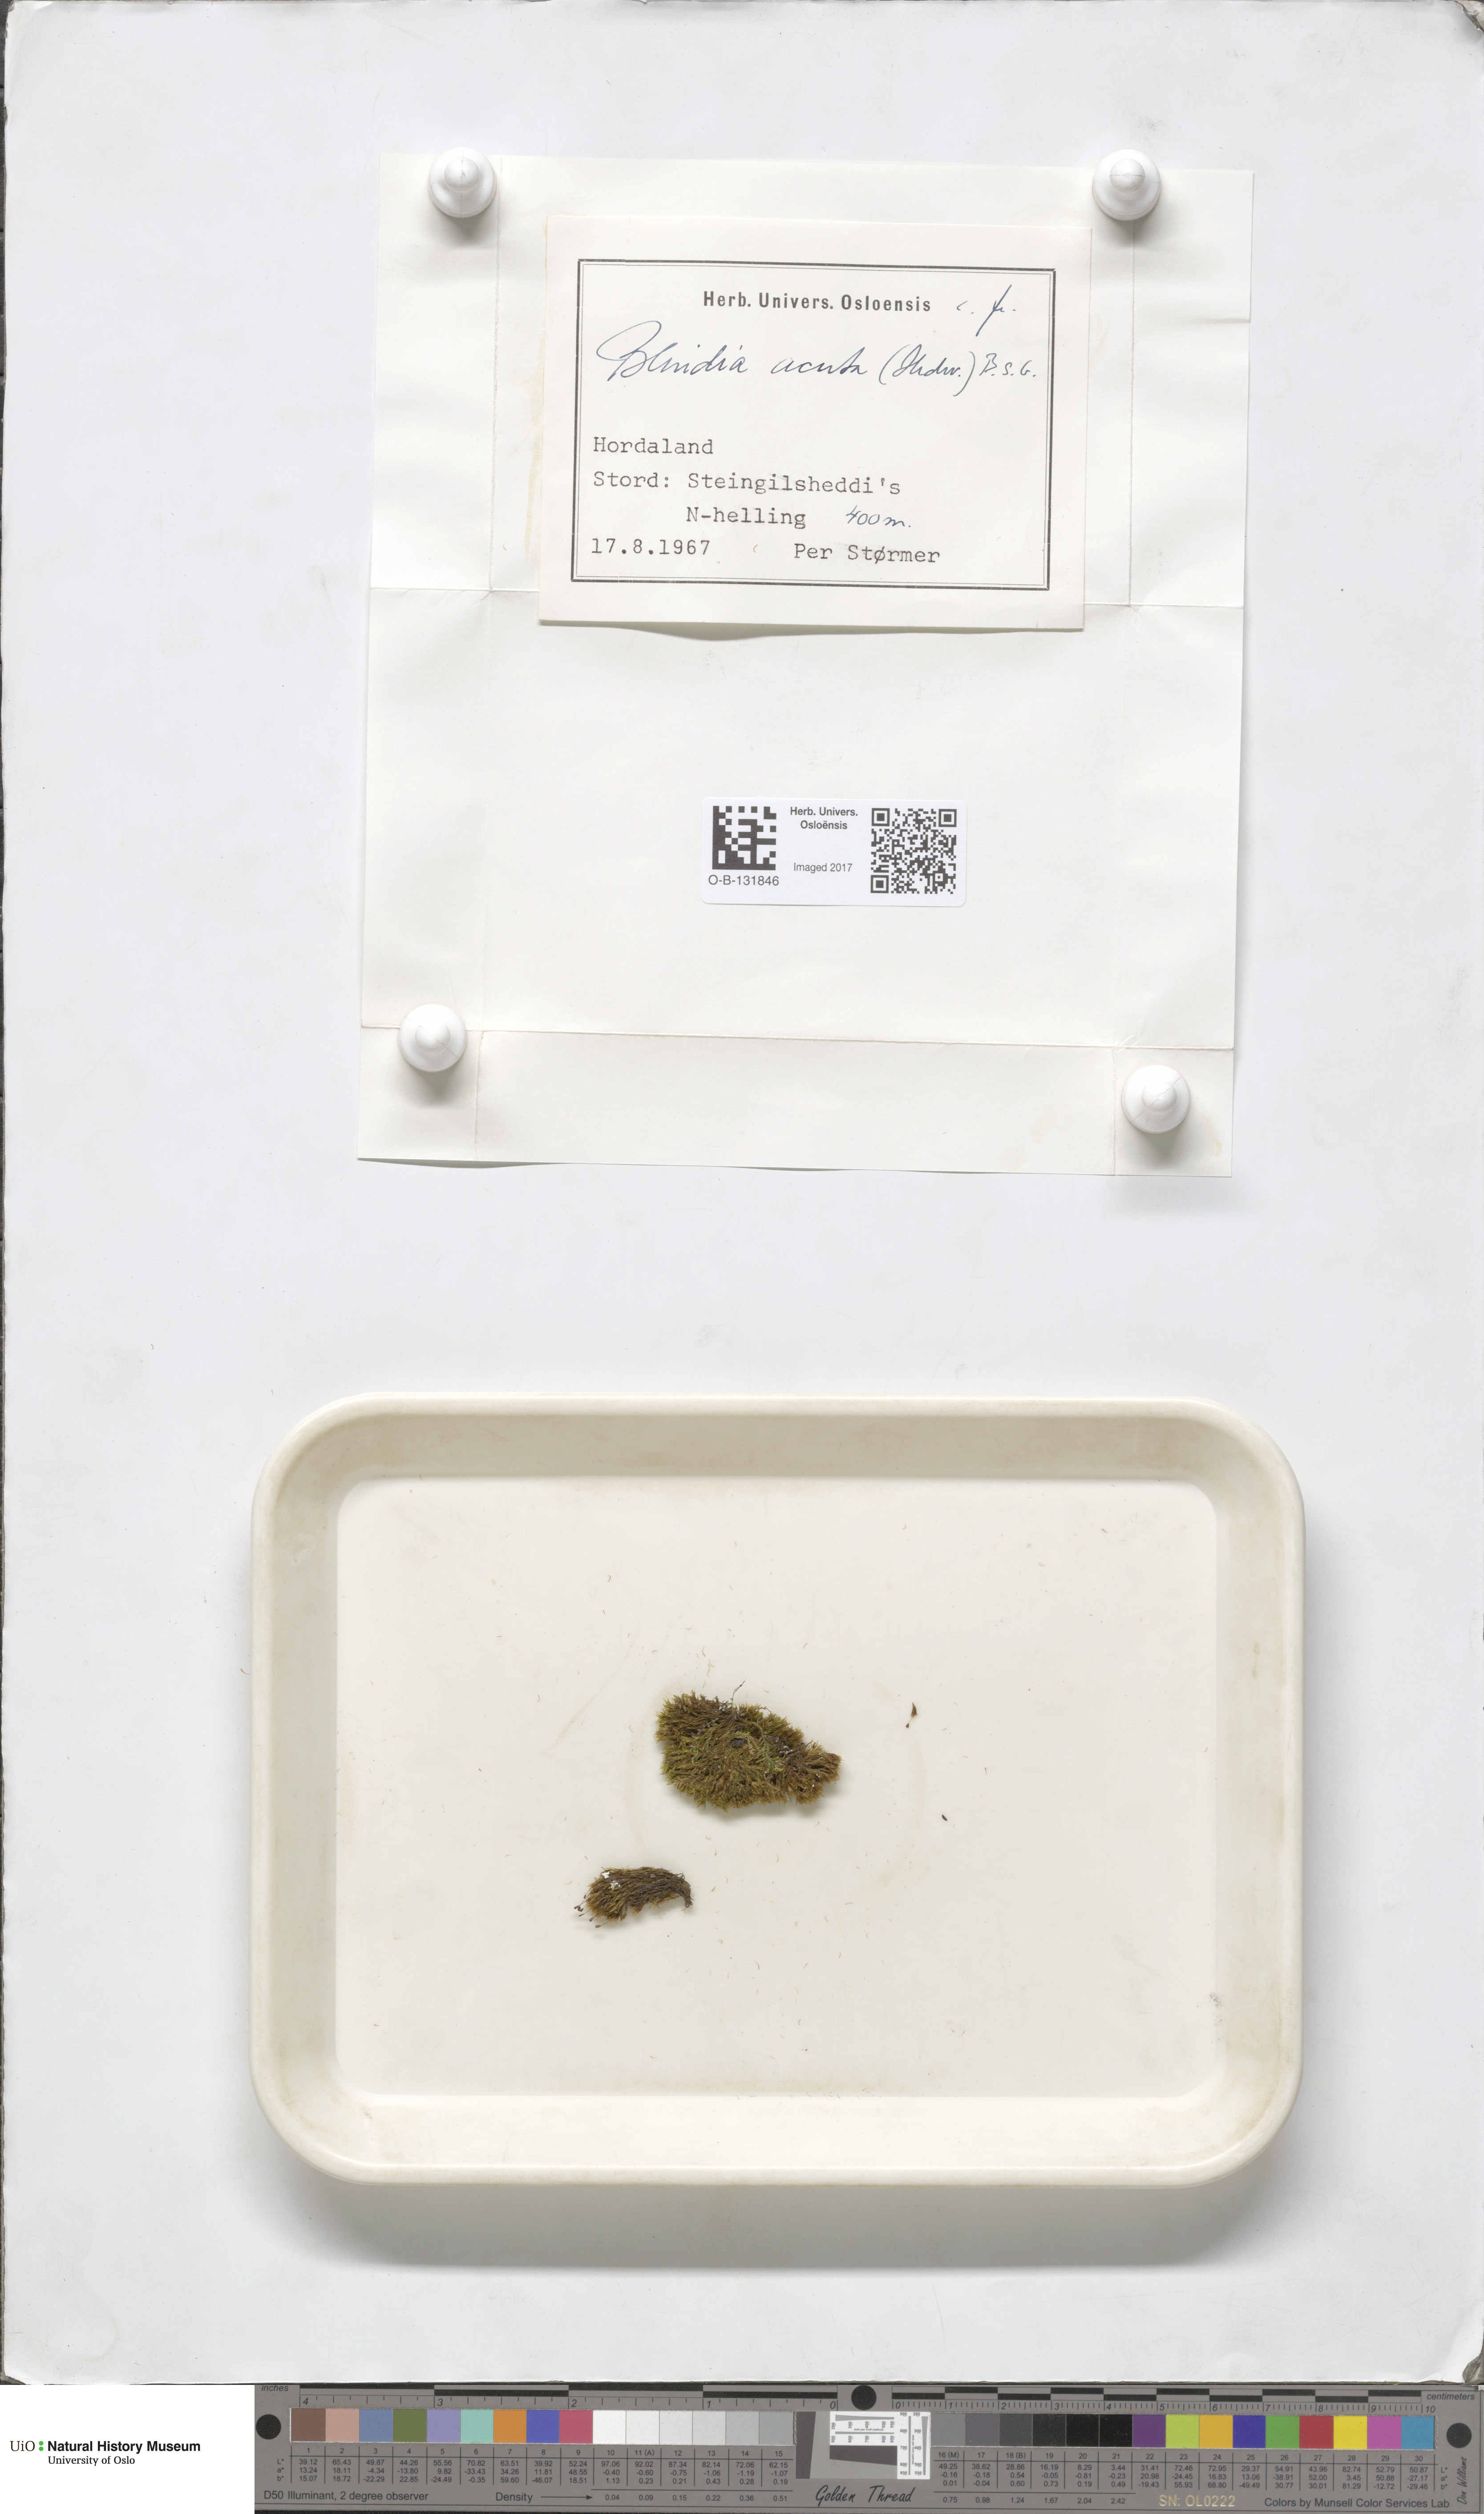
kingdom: Plantae
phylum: Bryophyta
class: Bryopsida
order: Grimmiales
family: Seligeriaceae
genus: Blindia
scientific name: Blindia acuta
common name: Sharp-leaved blind's moss
